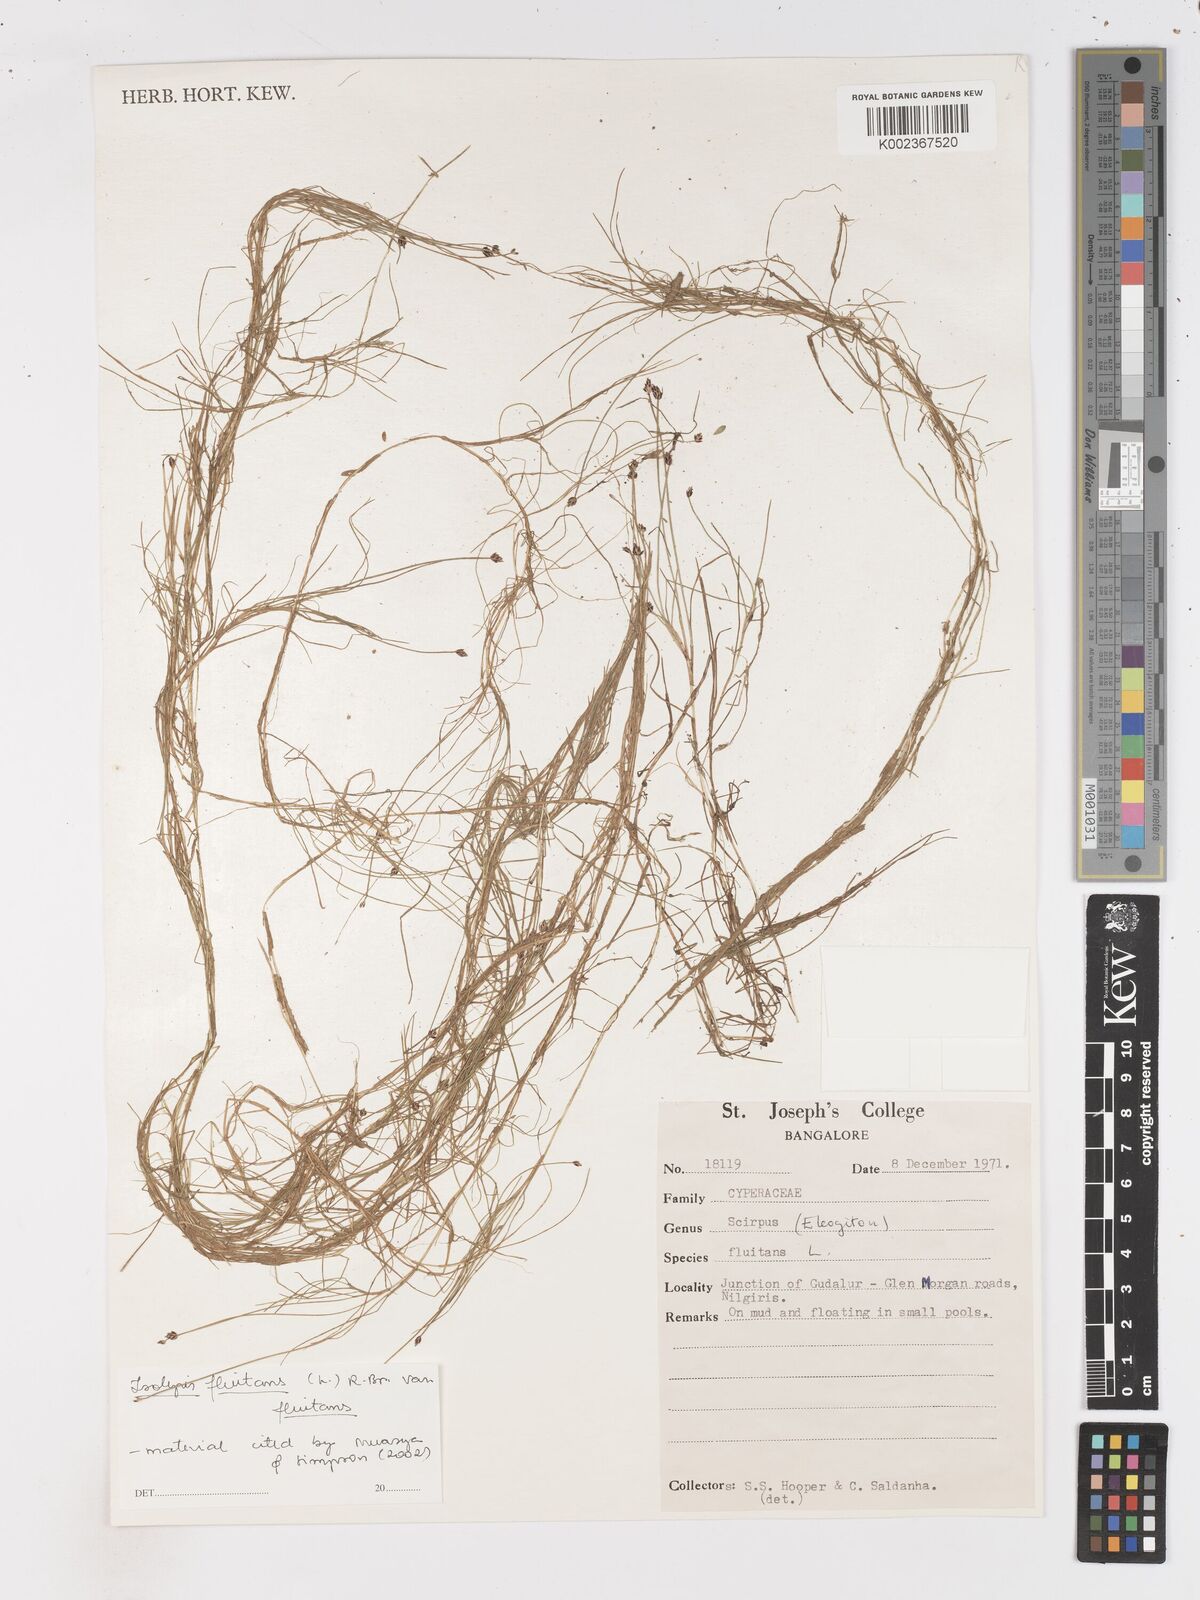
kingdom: Plantae
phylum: Tracheophyta
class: Liliopsida
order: Poales
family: Cyperaceae
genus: Isolepis
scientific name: Isolepis fluitans
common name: Floating club-rush
